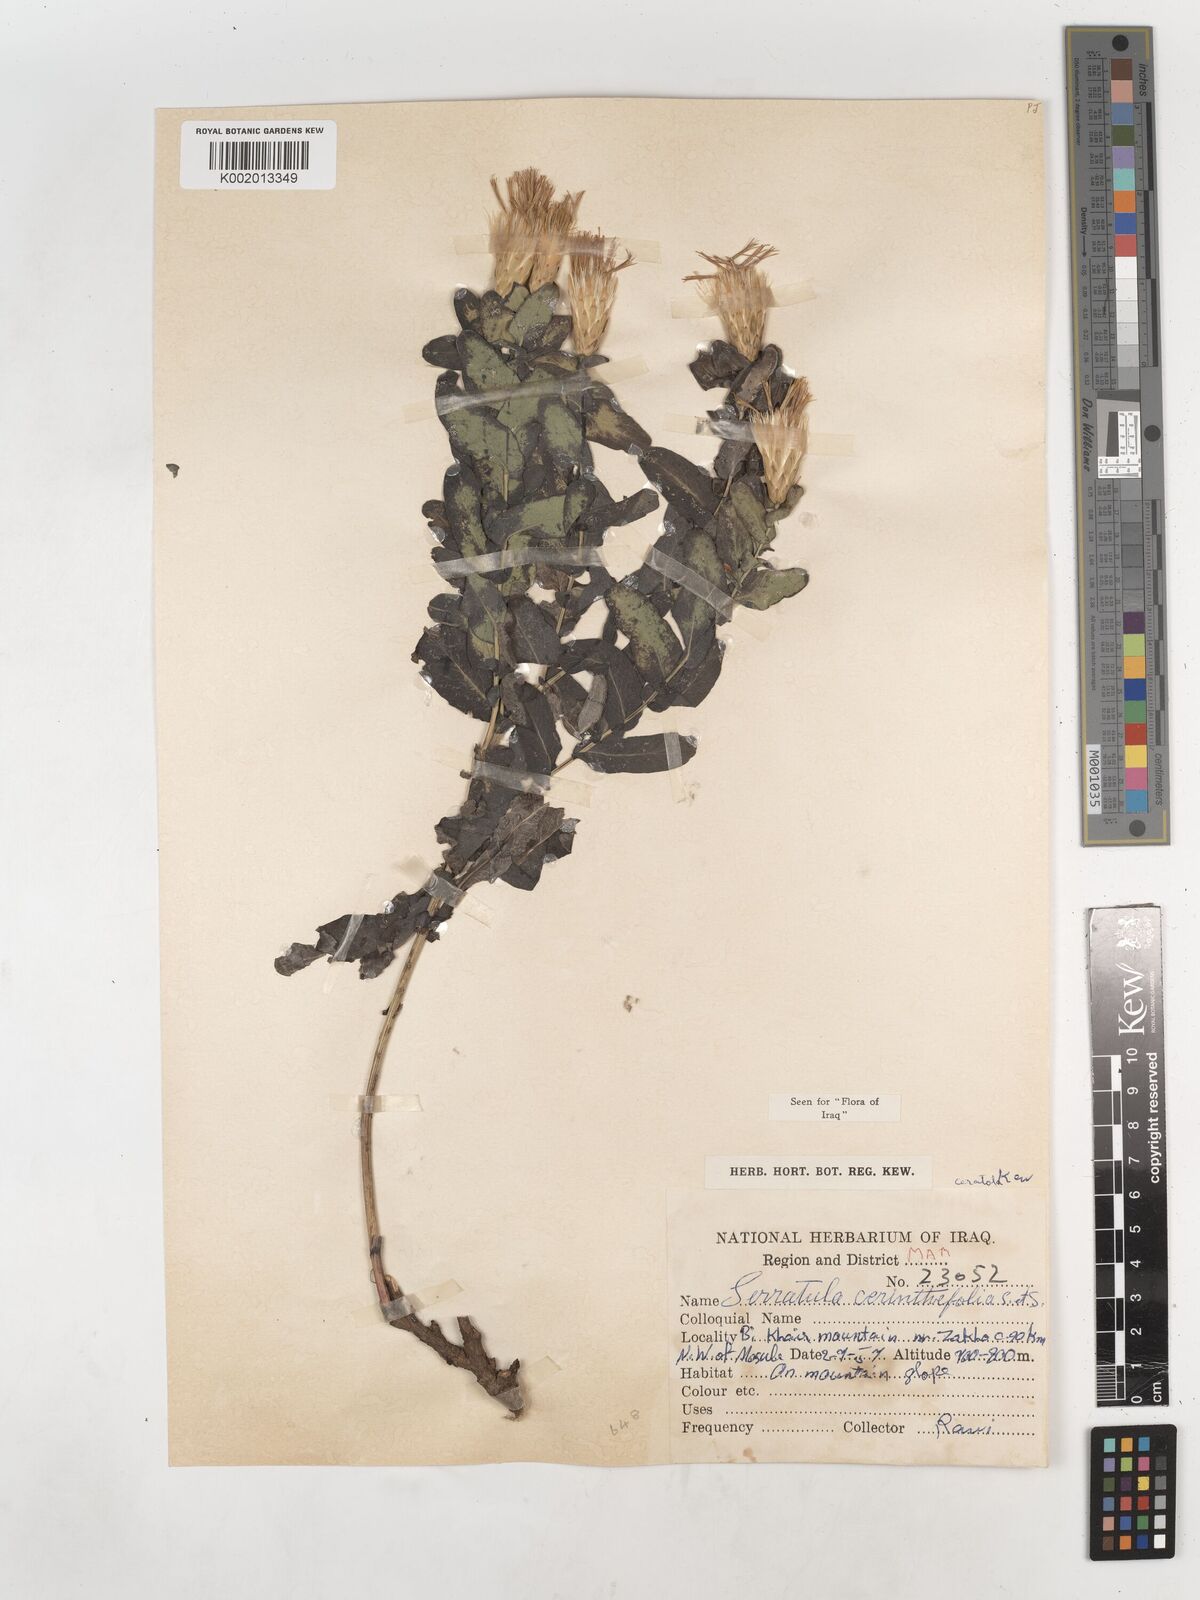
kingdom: Plantae
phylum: Tracheophyta
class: Magnoliopsida
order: Asterales
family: Asteraceae
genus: Klasea
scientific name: Klasea cerinthifolia
